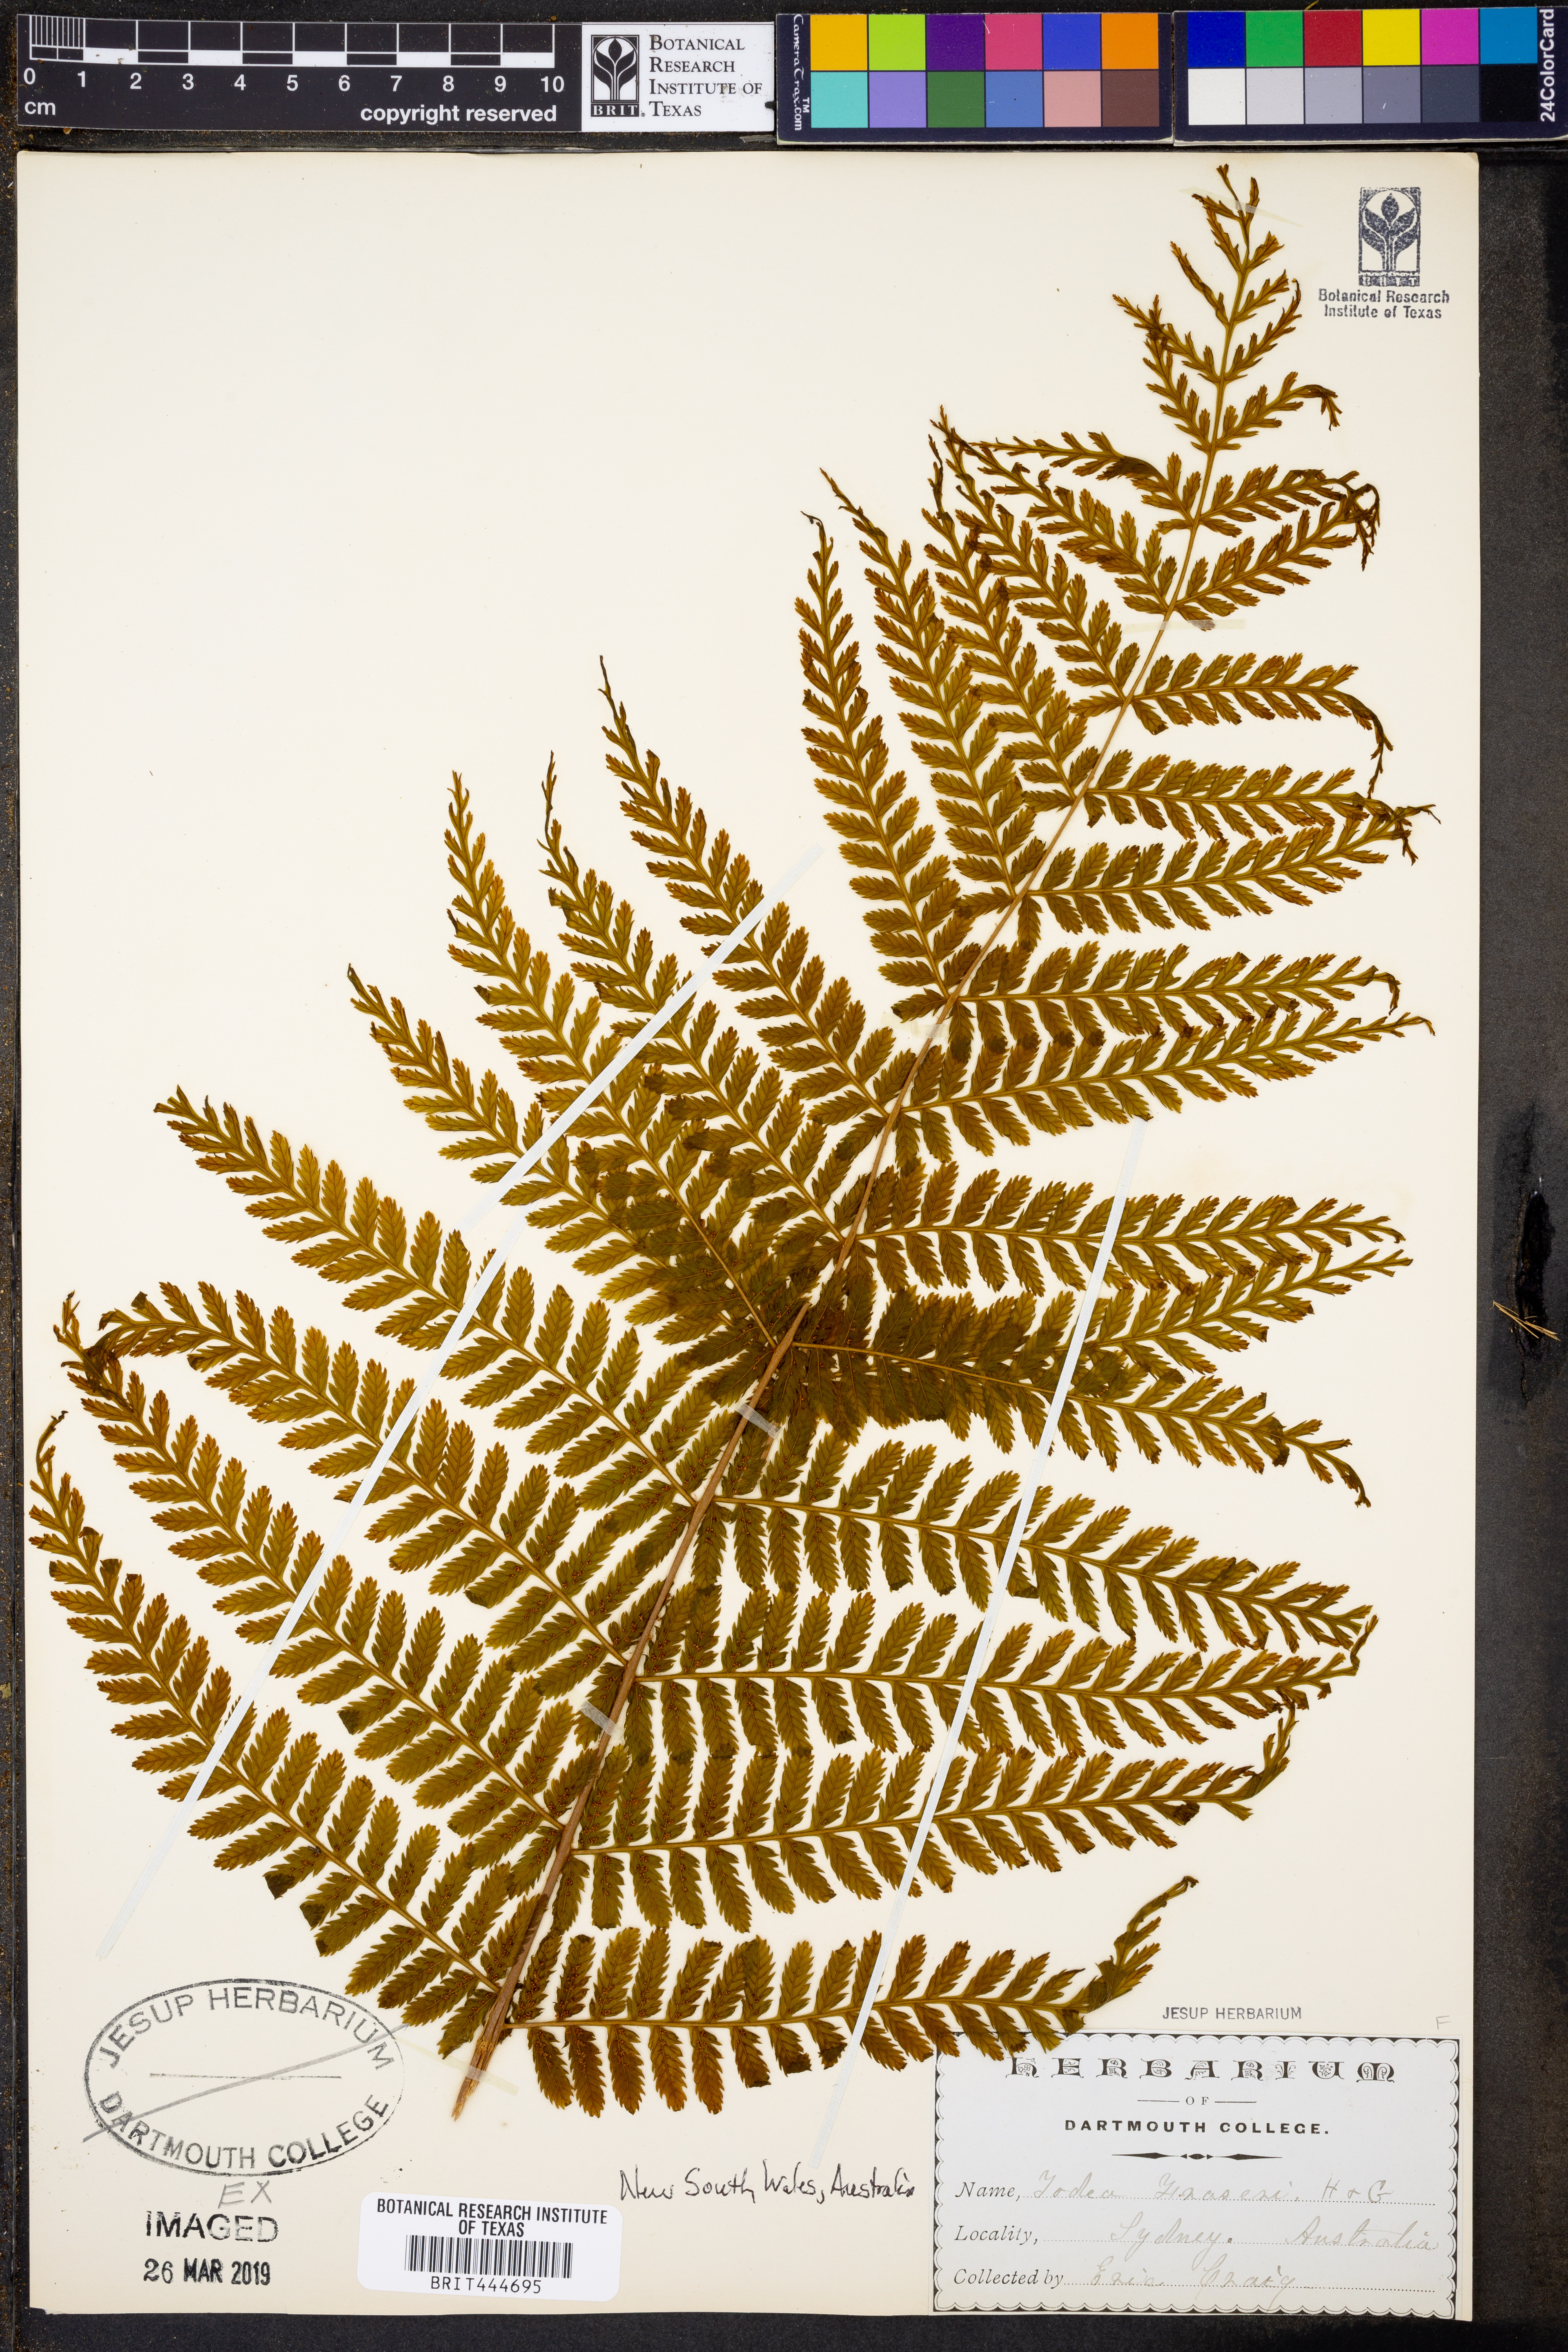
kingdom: Plantae
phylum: Tracheophyta
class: Polypodiopsida
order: Osmundales
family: Osmundaceae
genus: Leptopteris
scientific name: Leptopteris fraseri
